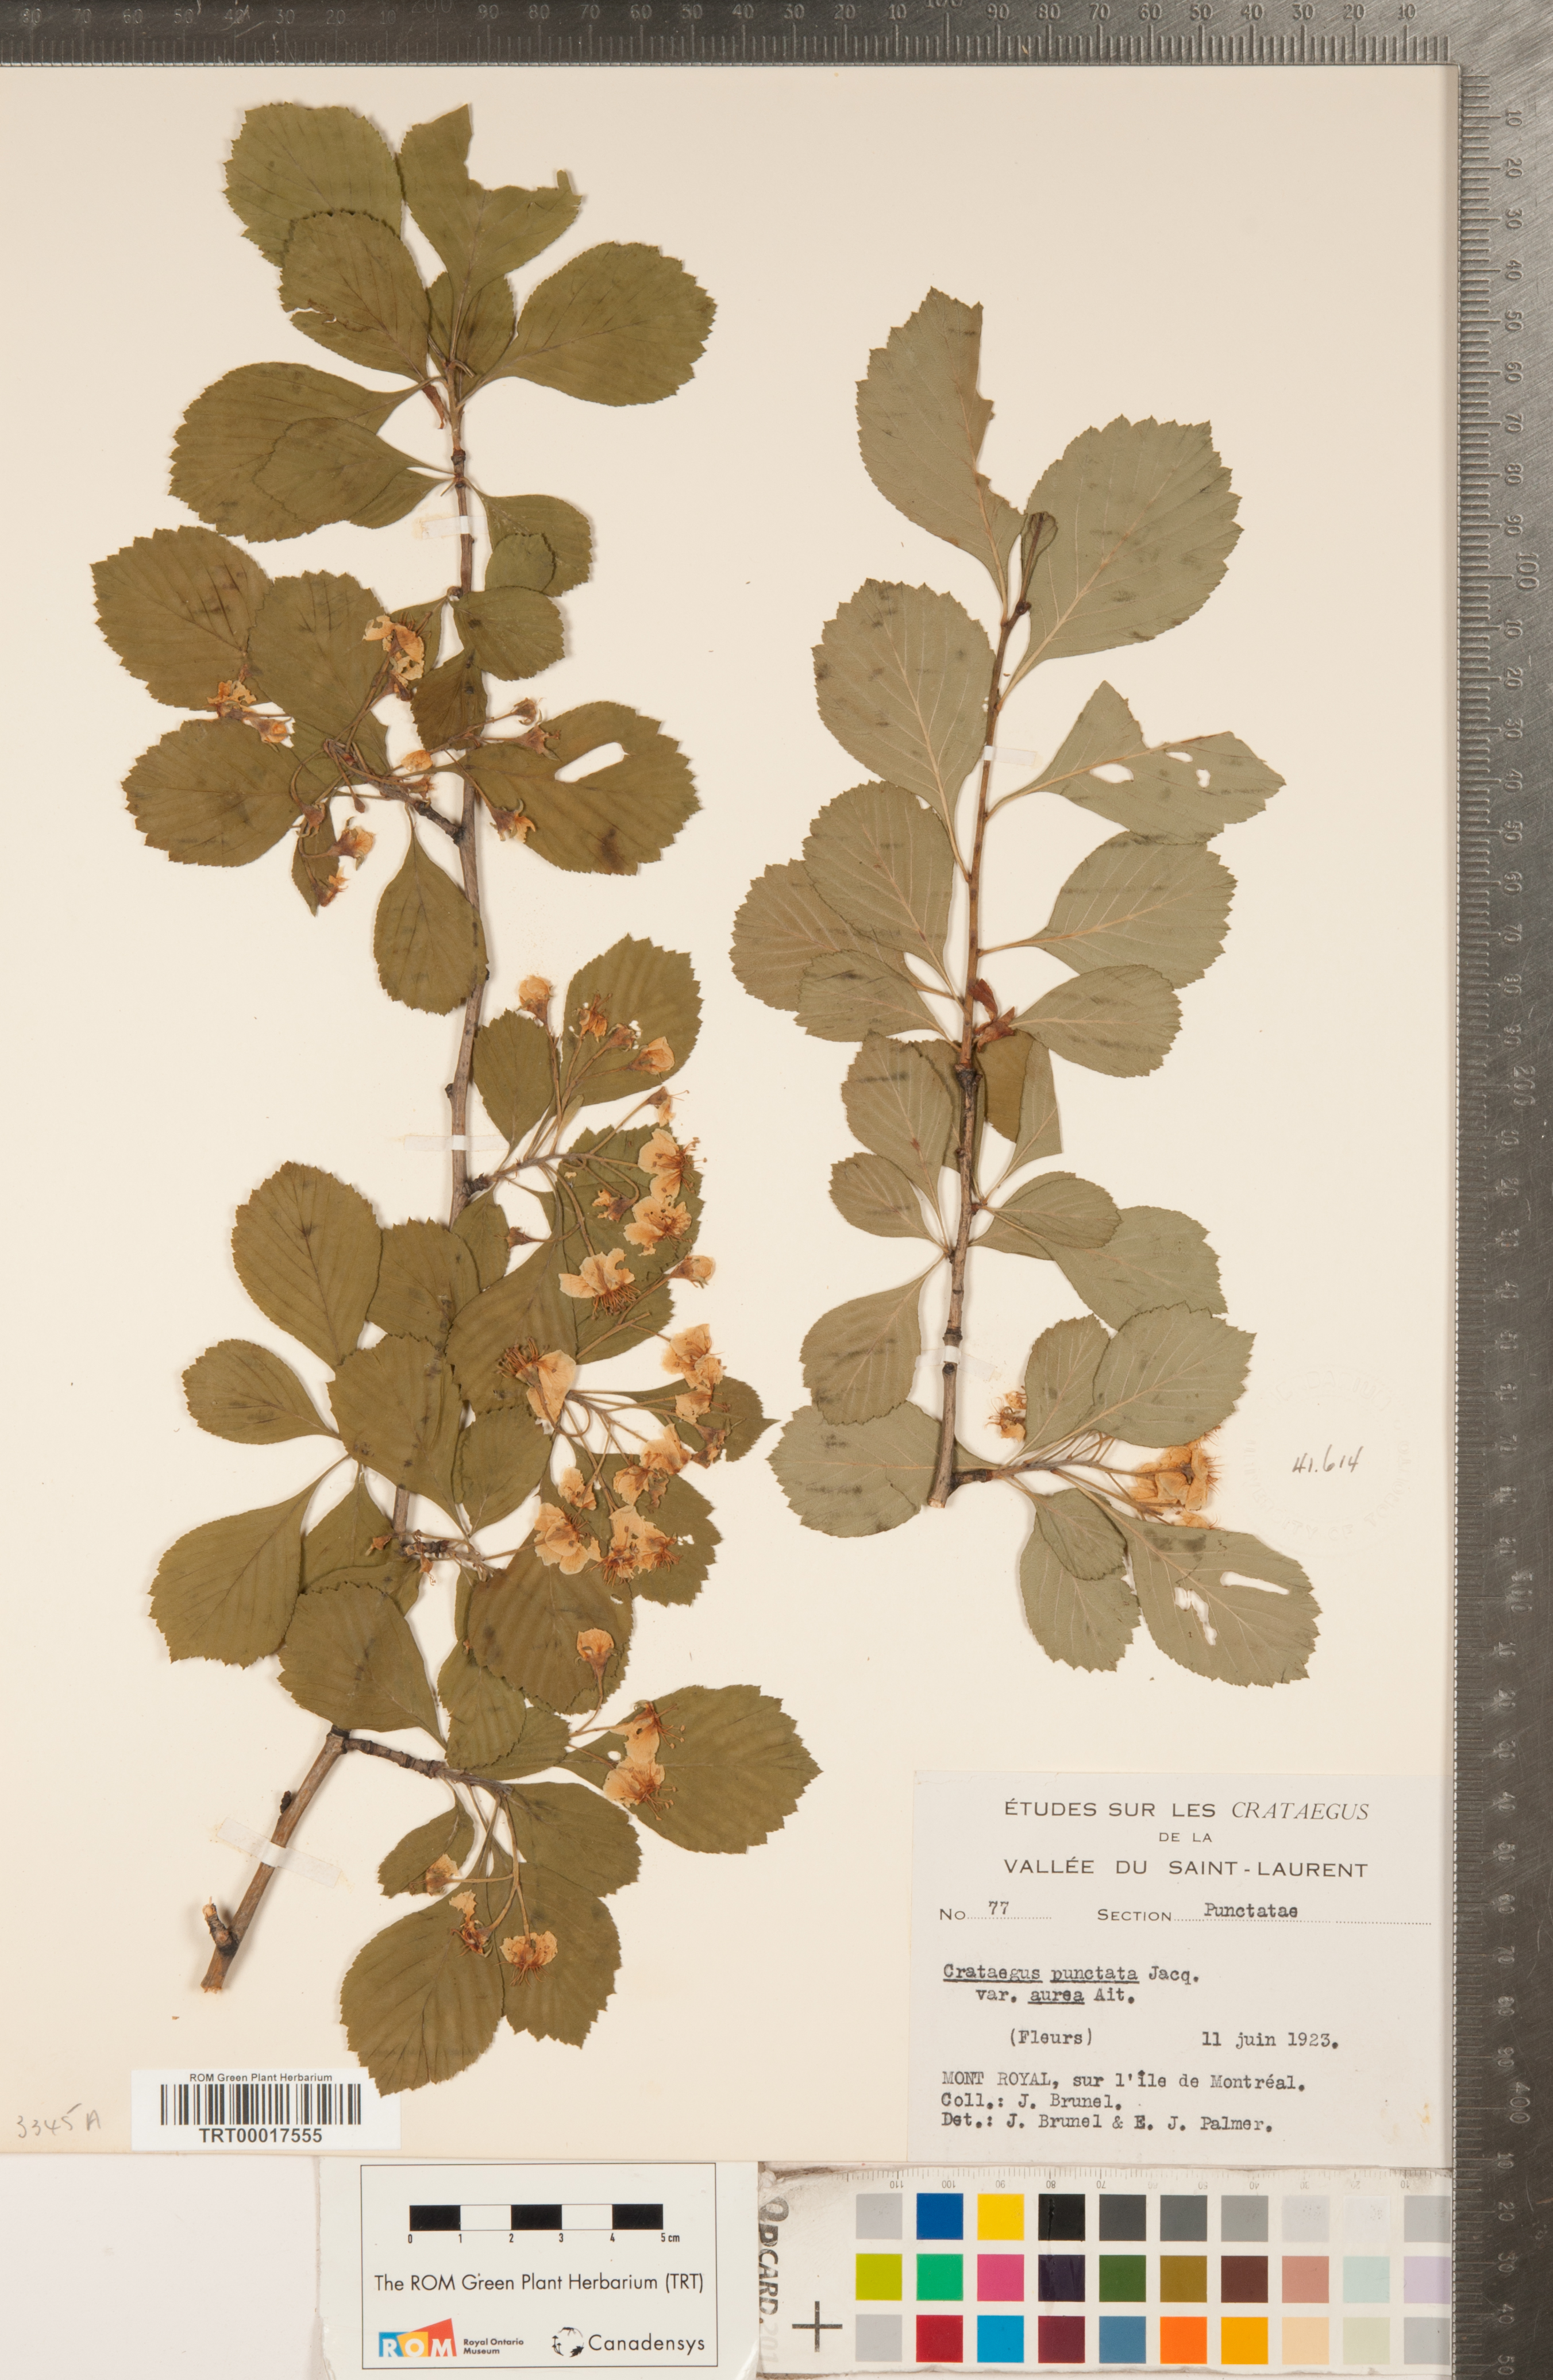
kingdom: Plantae
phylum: Tracheophyta
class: Magnoliopsida
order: Rosales
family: Rosaceae
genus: Crataegus
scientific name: Crataegus punctata
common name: Dotted hawthorn
